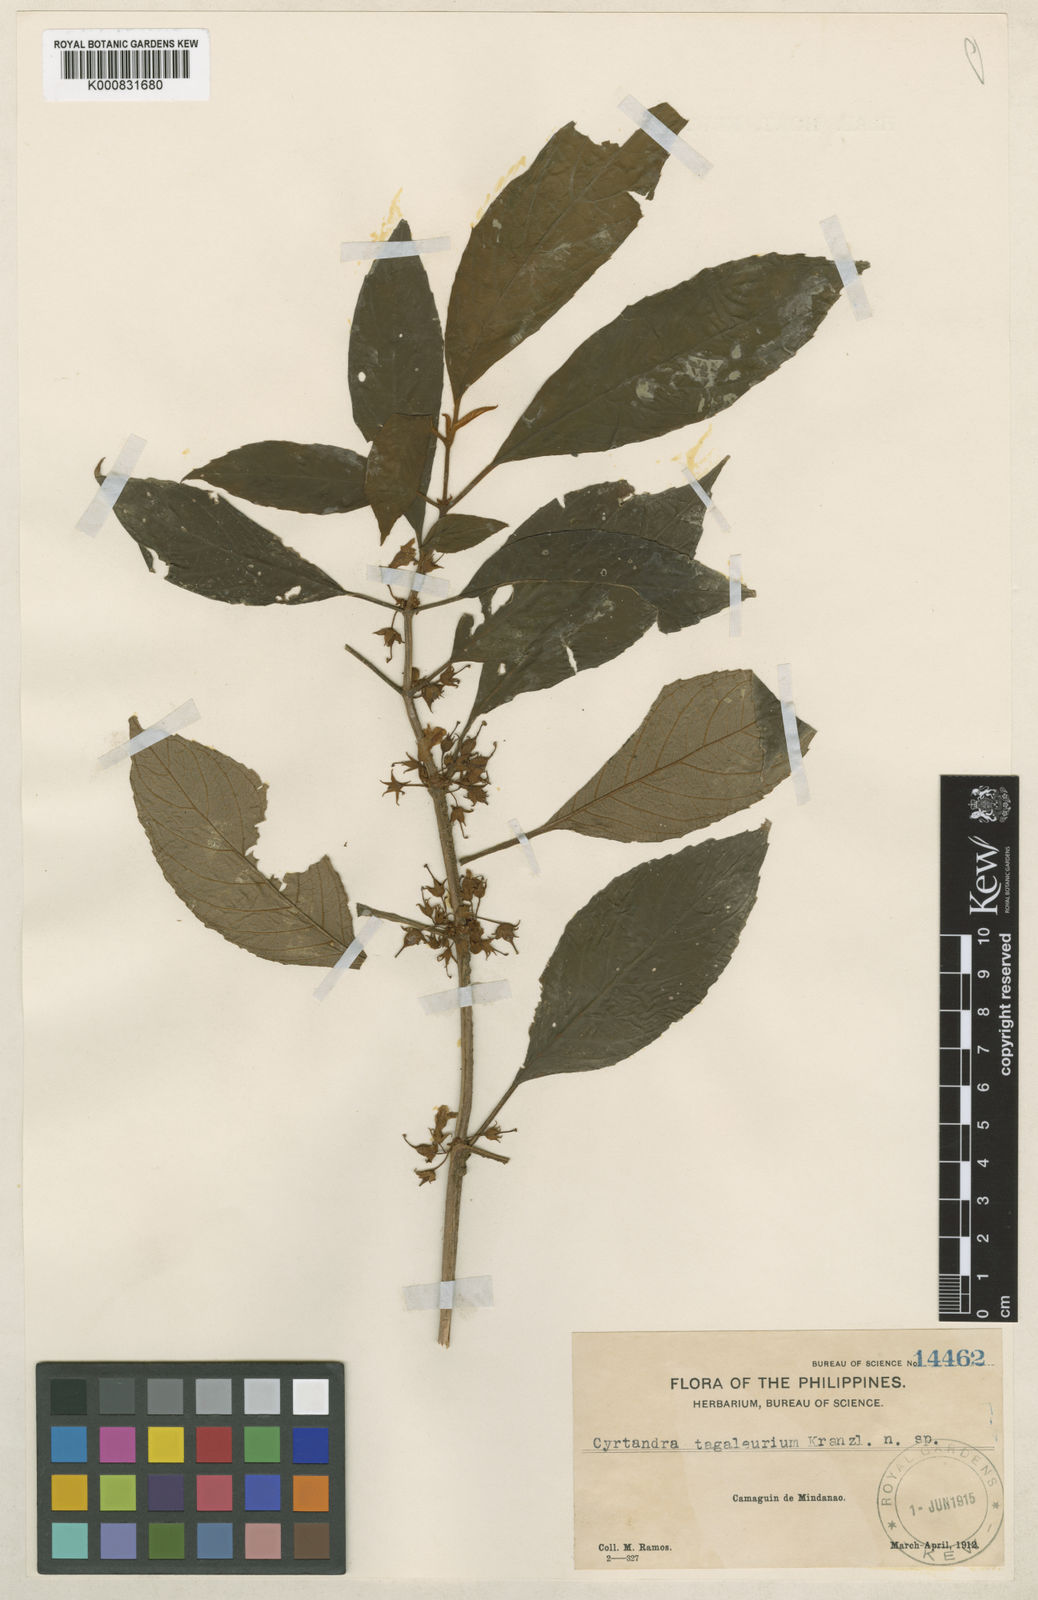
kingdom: Plantae
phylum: Tracheophyta
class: Magnoliopsida
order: Lamiales
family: Gesneriaceae
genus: Cyrtandra
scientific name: Cyrtandra tagaleurium
